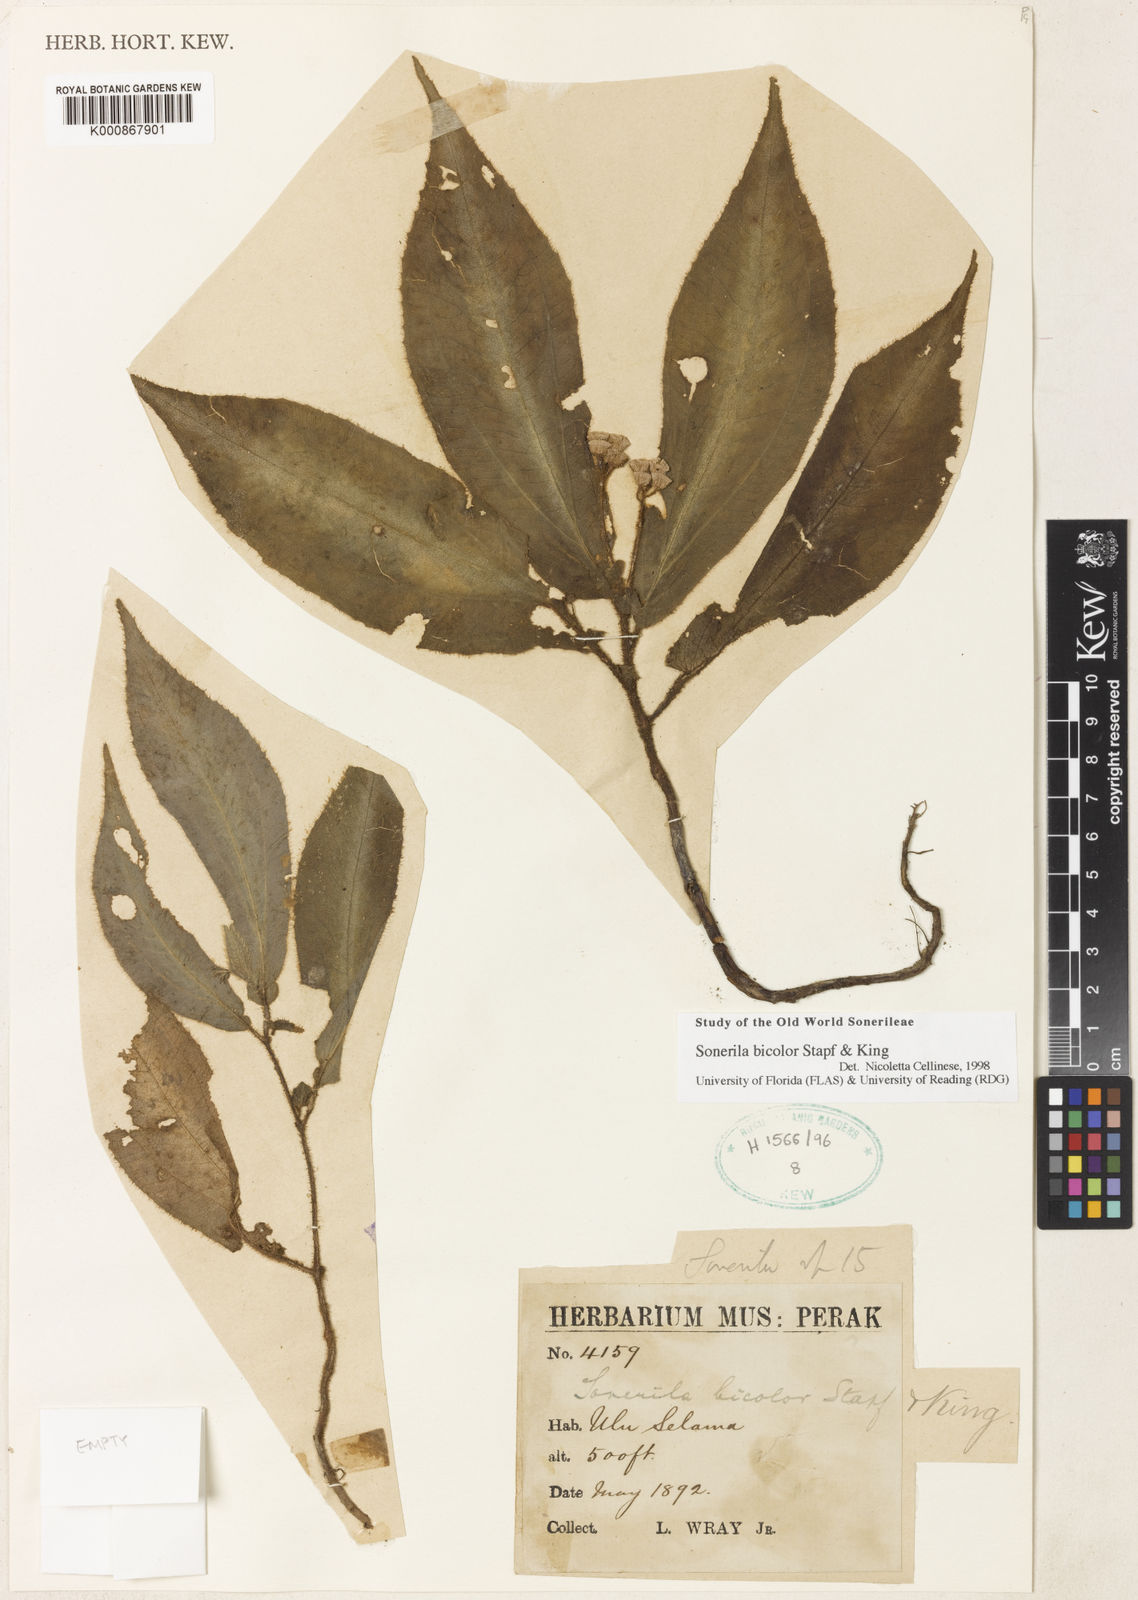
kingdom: Plantae
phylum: Tracheophyta
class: Magnoliopsida
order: Myrtales
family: Melastomataceae
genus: Sonerila
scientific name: Sonerila bicolor
